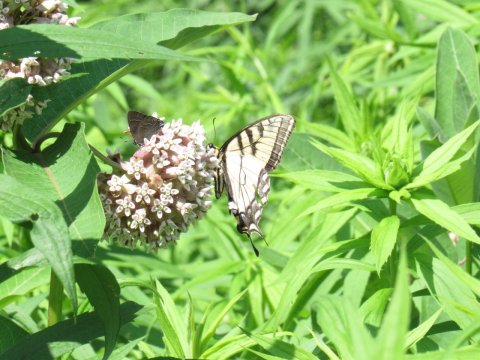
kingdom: Animalia
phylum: Arthropoda
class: Insecta
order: Lepidoptera
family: Papilionidae
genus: Pterourus
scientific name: Pterourus canadensis
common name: Canadian Tiger Swallowtail
